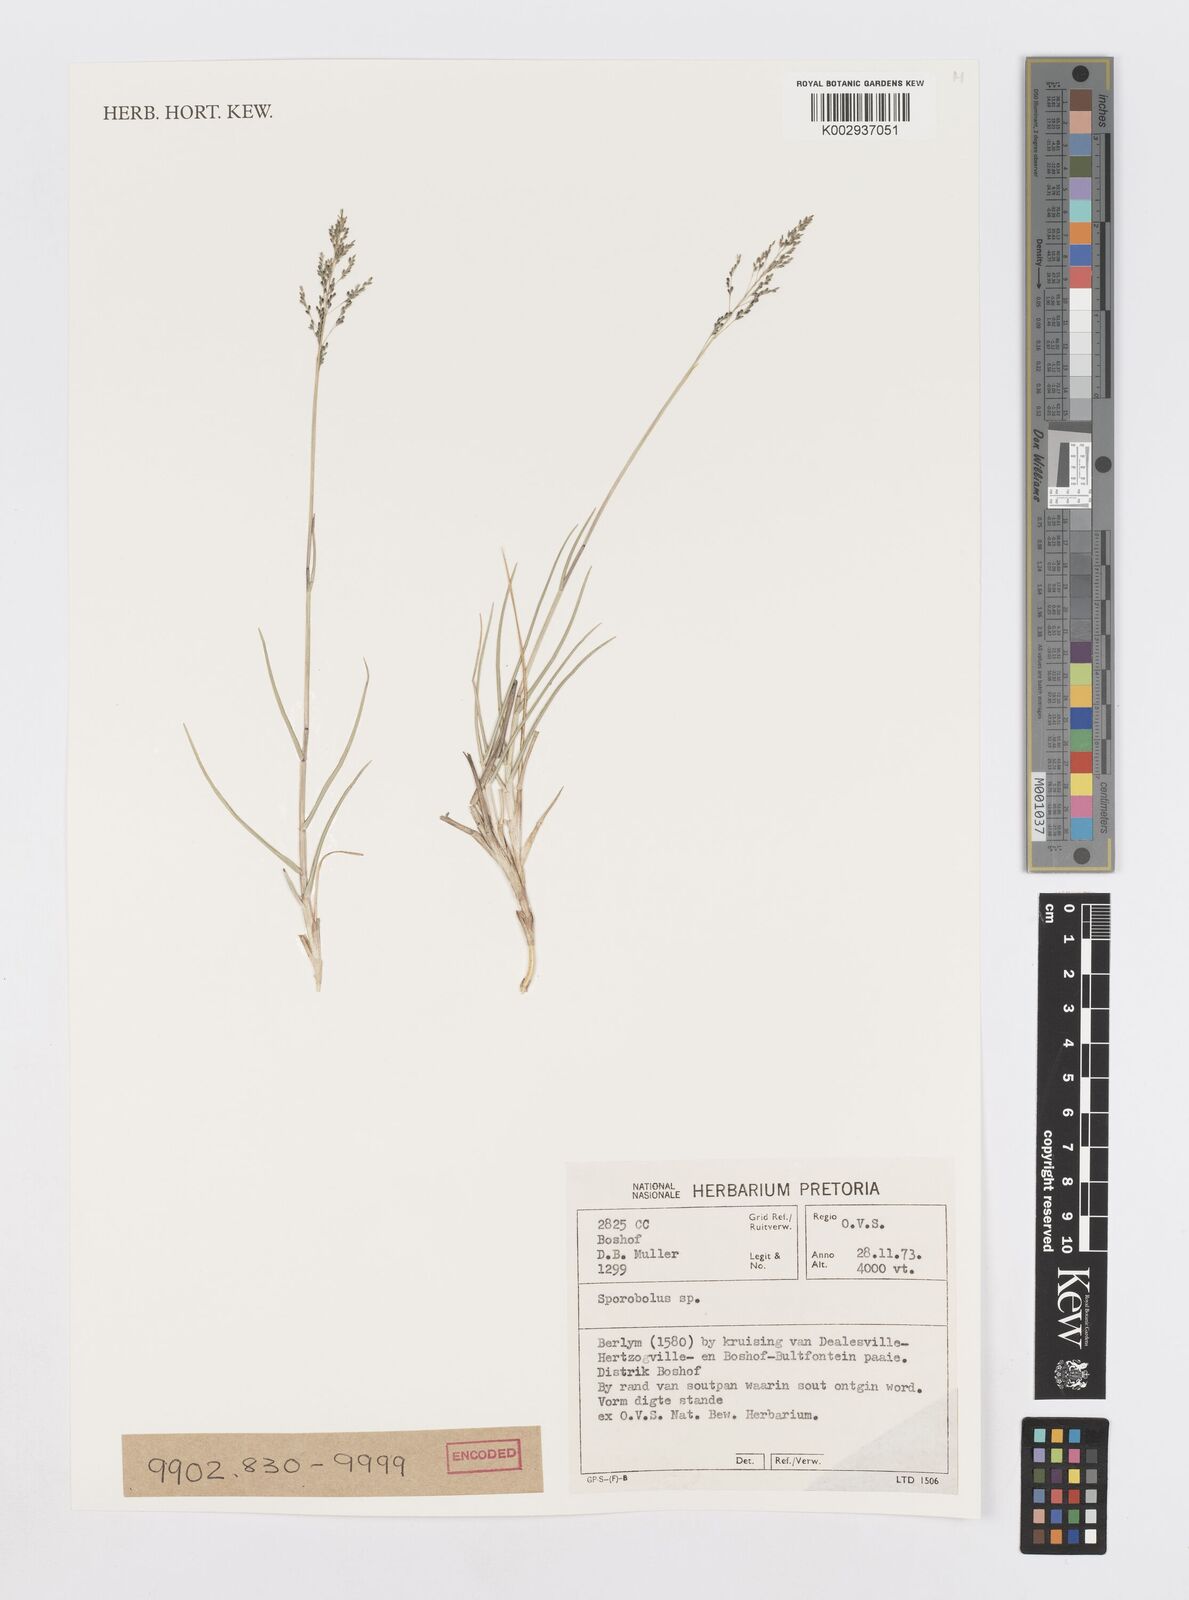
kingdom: Plantae
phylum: Tracheophyta
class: Liliopsida
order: Poales
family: Poaceae
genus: Sporobolus
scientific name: Sporobolus
